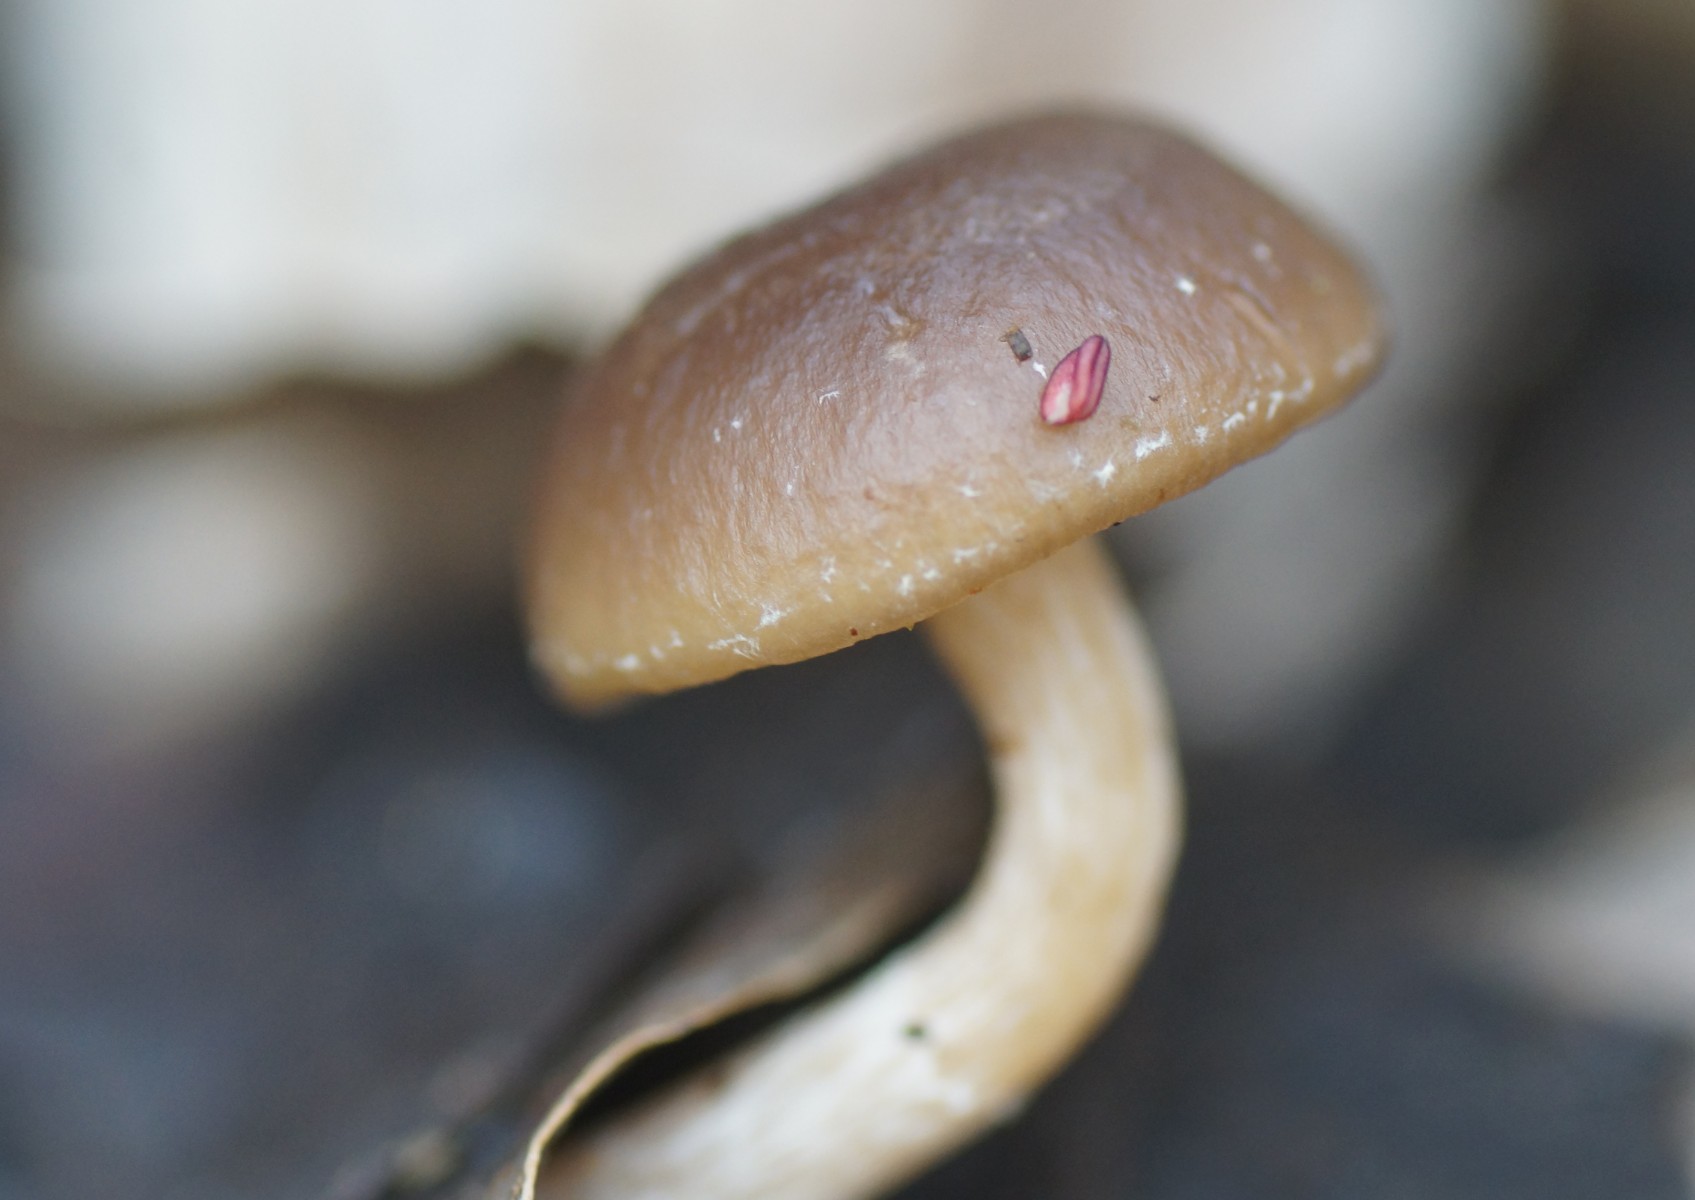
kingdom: Fungi
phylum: Basidiomycota
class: Agaricomycetes
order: Agaricales
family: Strophariaceae
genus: Meottomyces
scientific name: Meottomyces dissimulans
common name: smudsigbrun vinterskælhat
